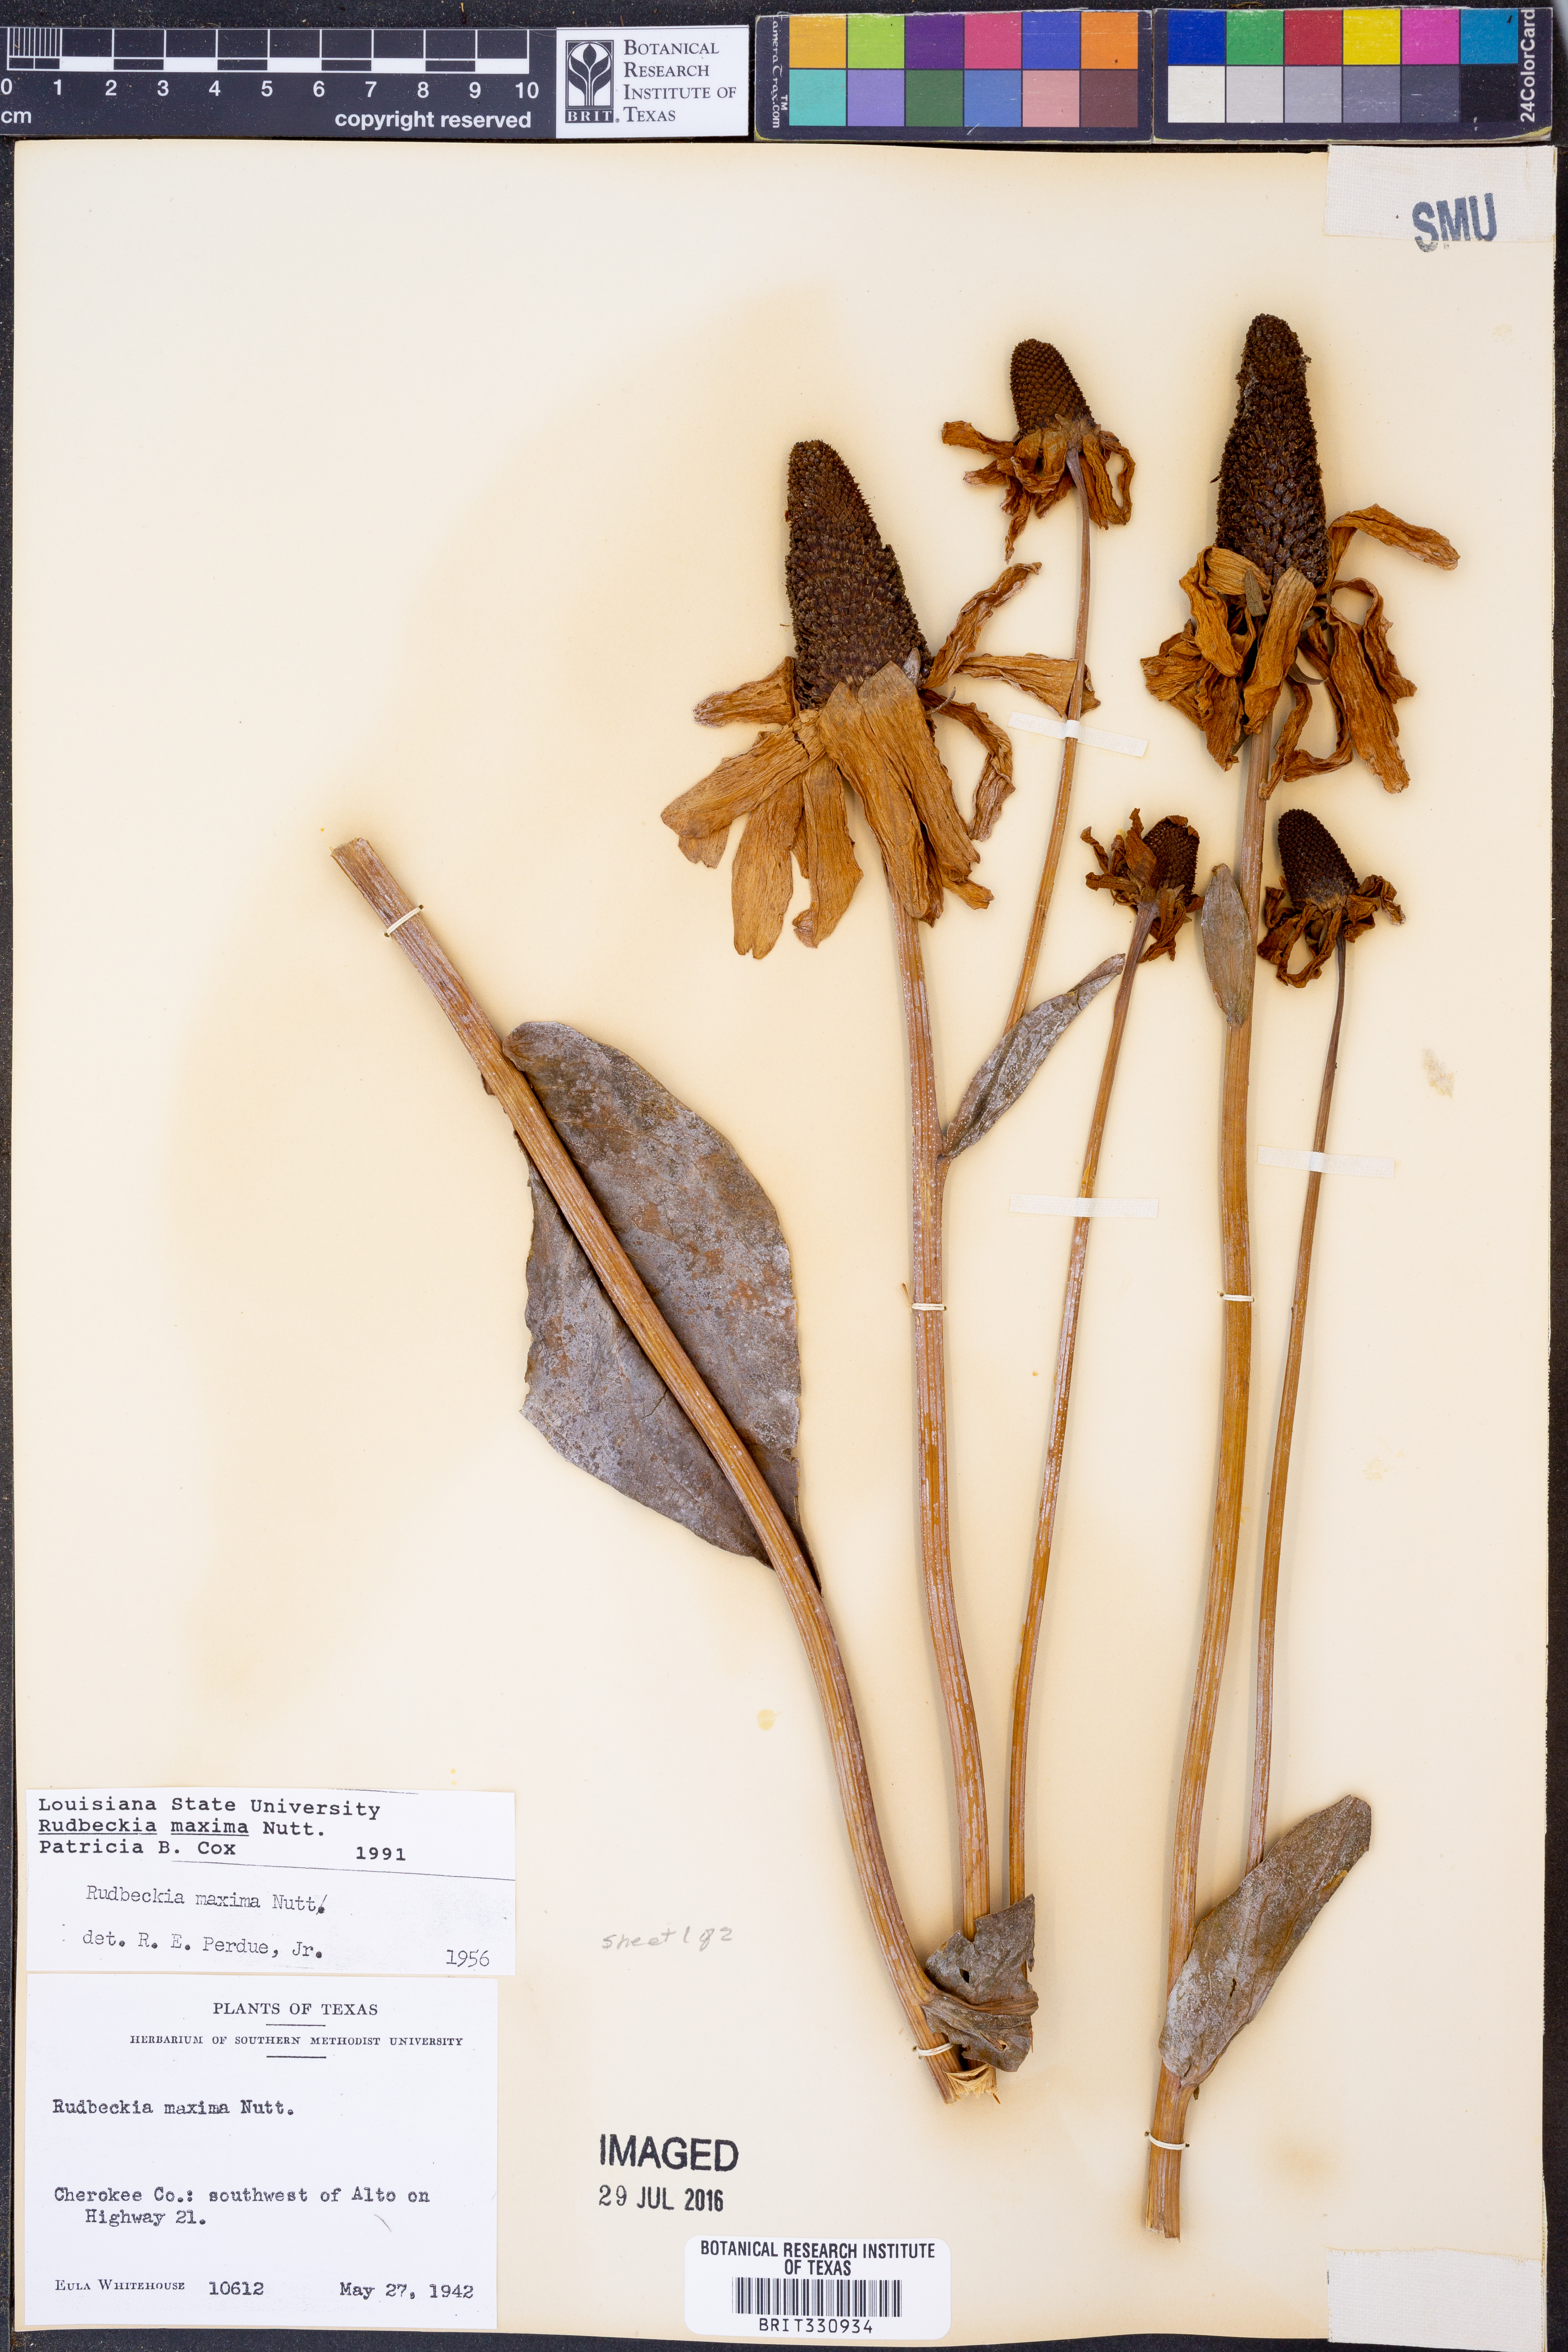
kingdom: Plantae
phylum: Tracheophyta
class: Magnoliopsida
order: Asterales
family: Asteraceae
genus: Rudbeckia
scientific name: Rudbeckia maxima
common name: Cabbage coneflower
